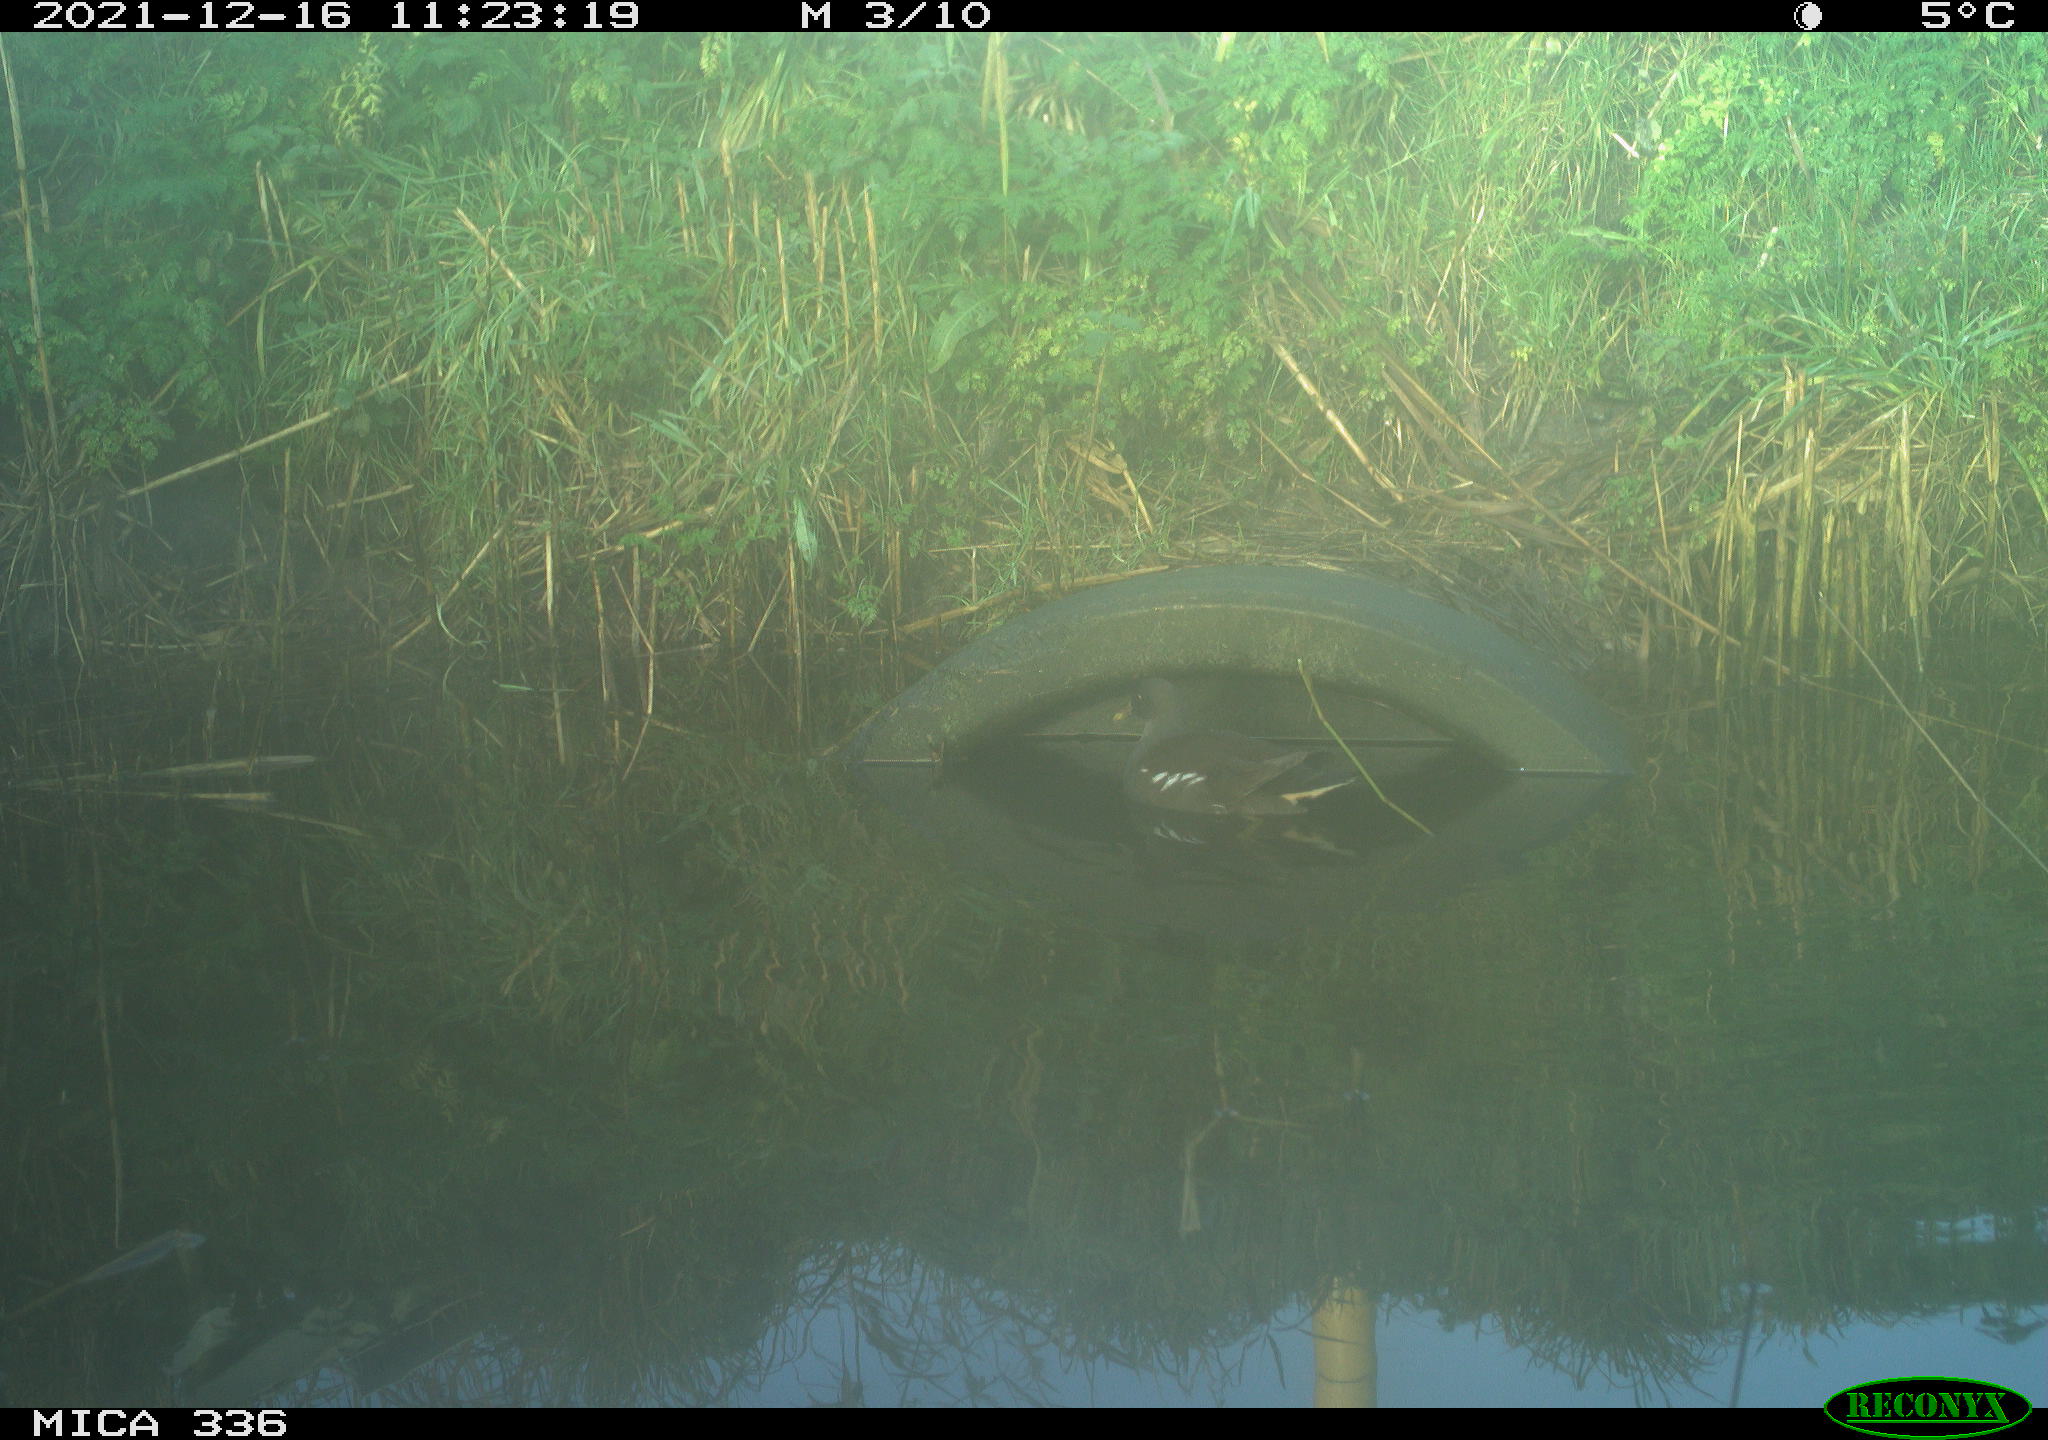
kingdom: Animalia
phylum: Chordata
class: Aves
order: Gruiformes
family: Rallidae
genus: Gallinula
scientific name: Gallinula chloropus
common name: Common moorhen
